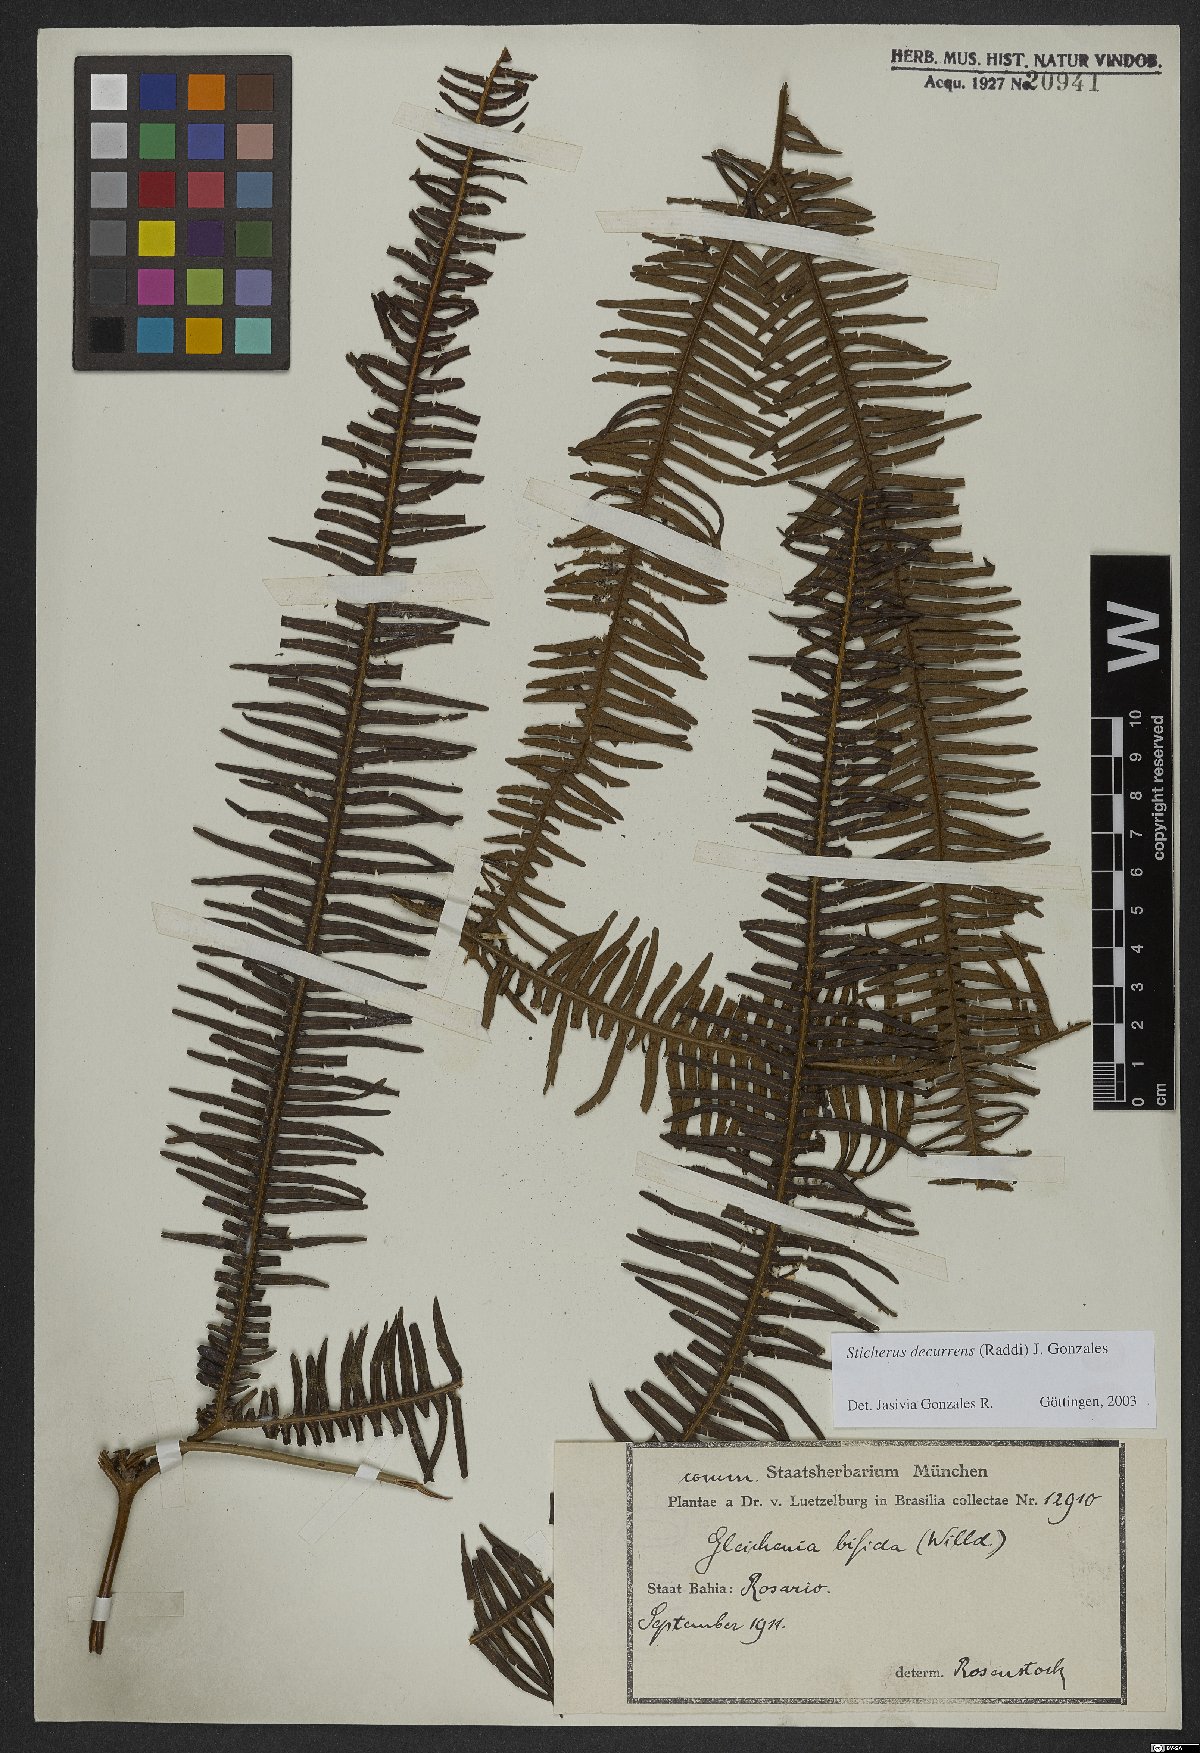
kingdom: Plantae
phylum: Tracheophyta
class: Polypodiopsida
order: Gleicheniales
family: Gleicheniaceae
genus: Sticherus
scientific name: Sticherus decurrens
